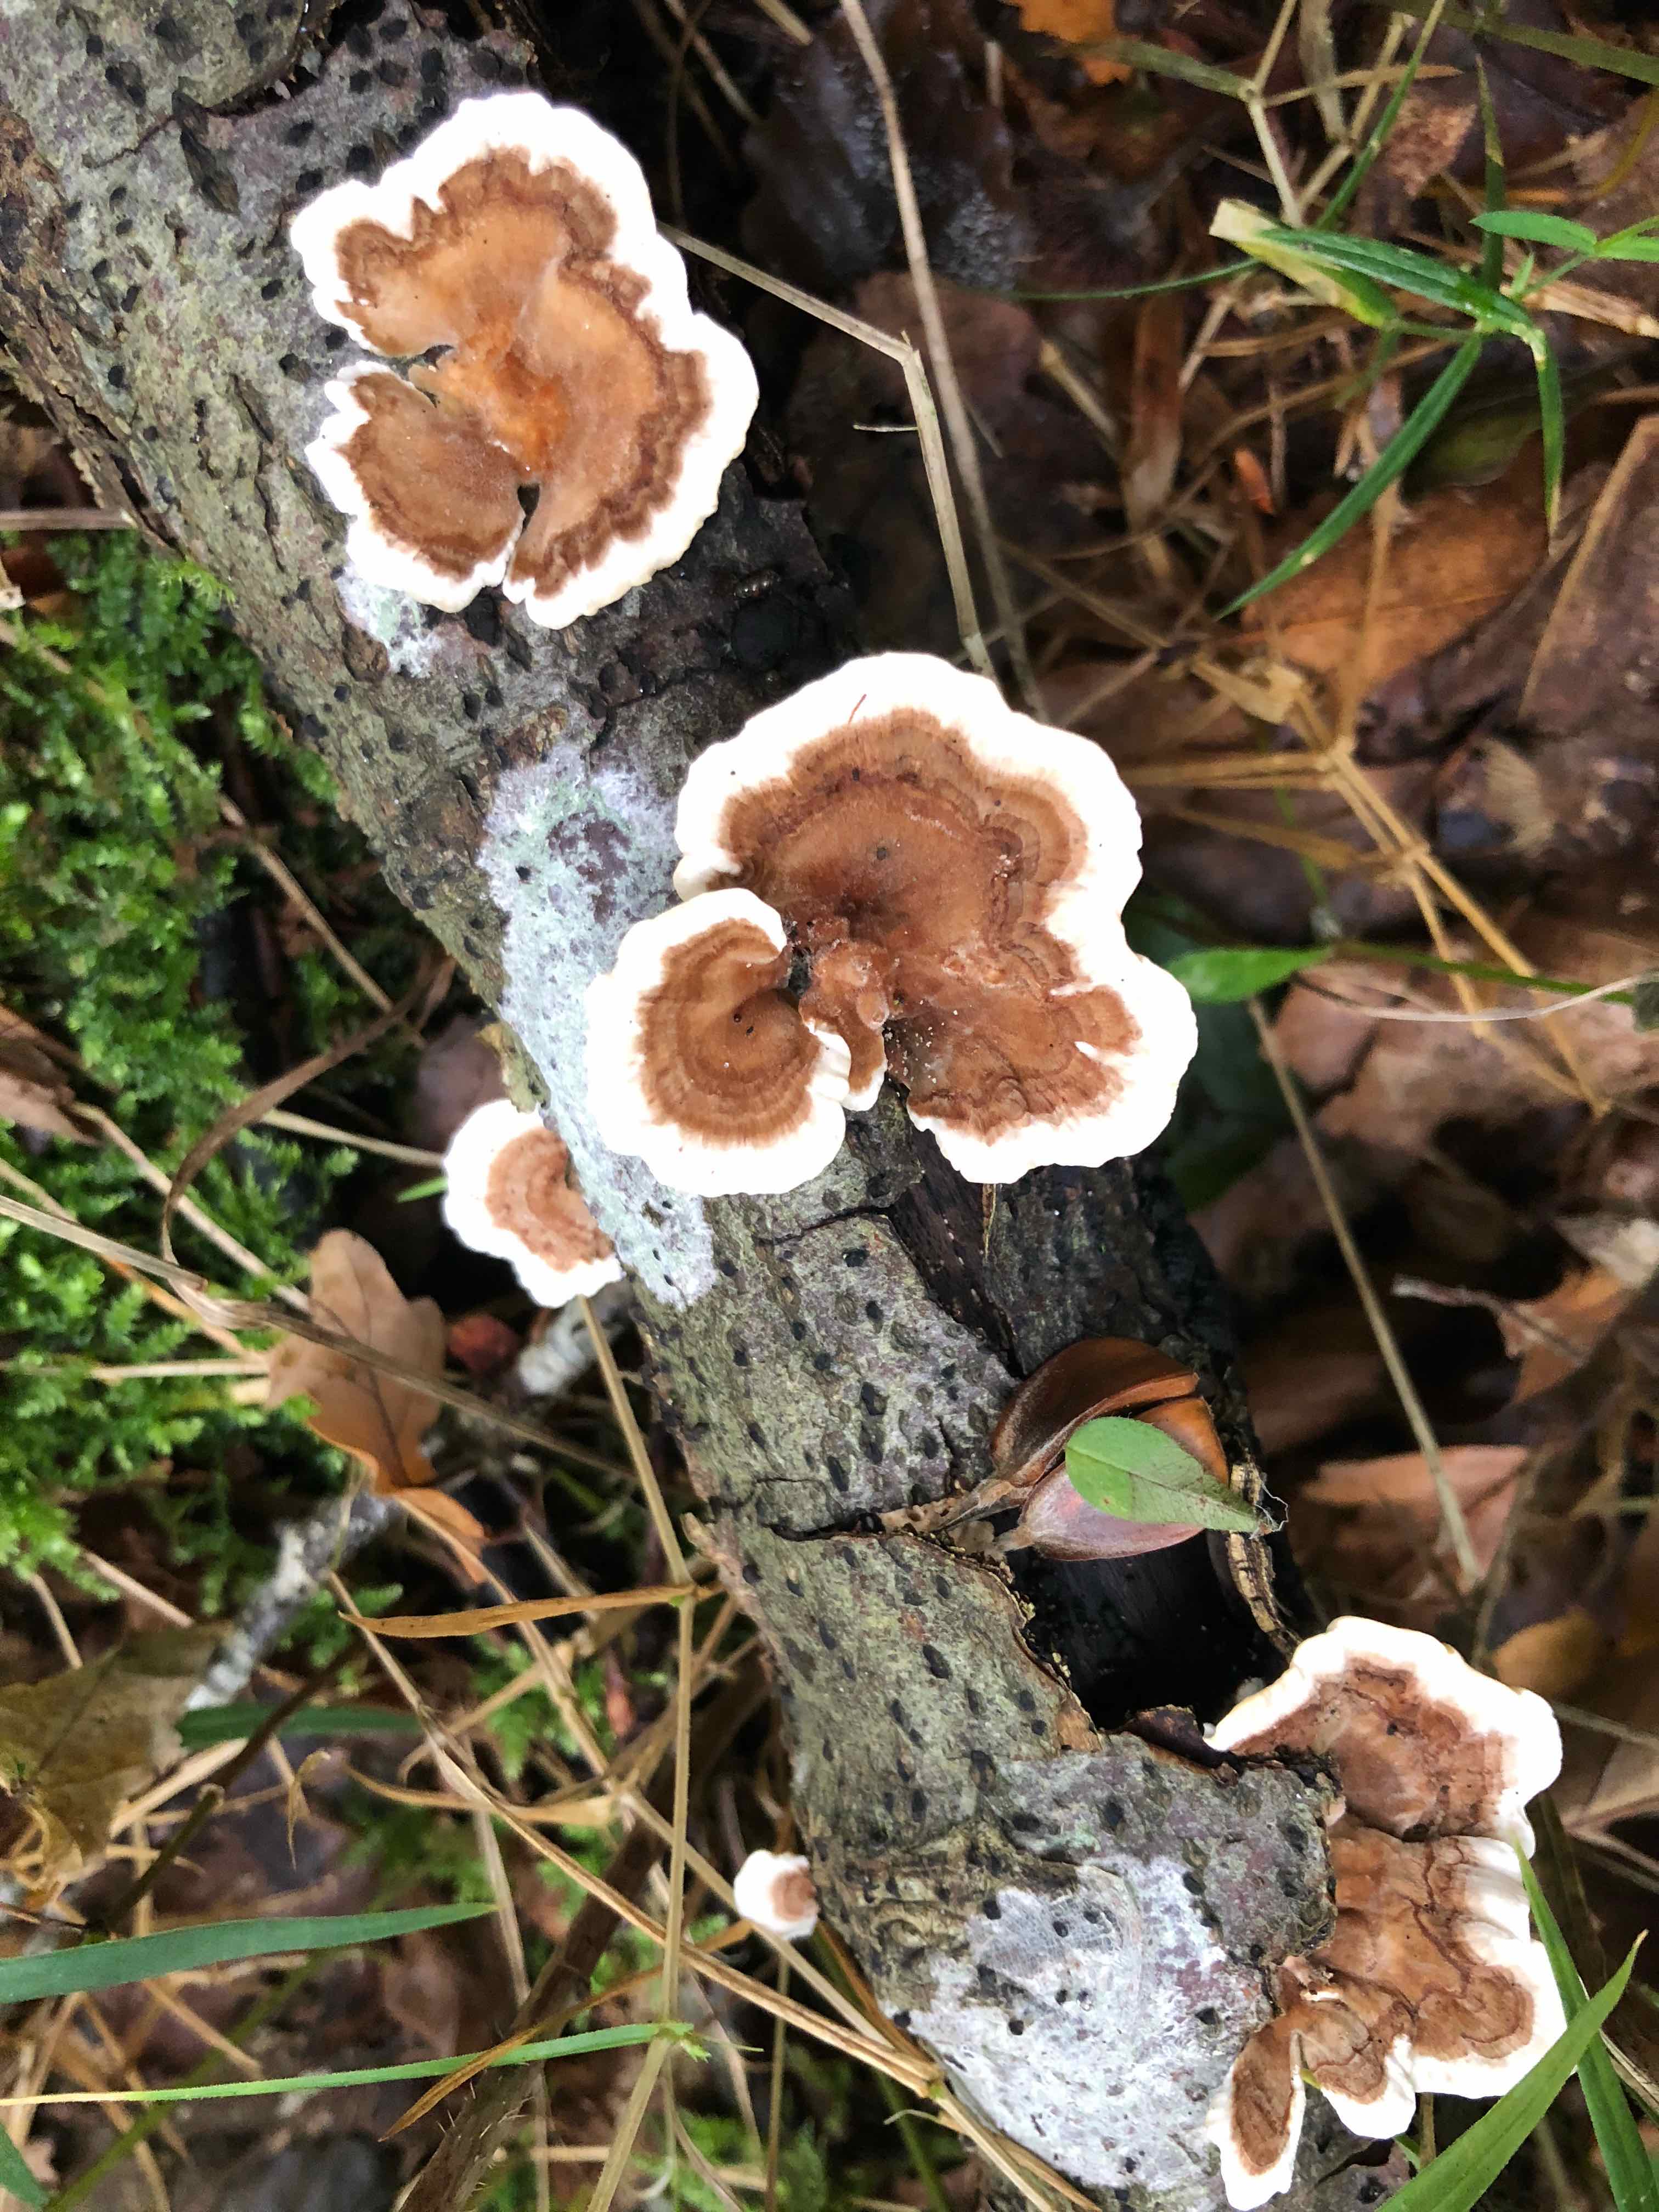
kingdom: Fungi
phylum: Basidiomycota
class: Agaricomycetes
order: Polyporales
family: Polyporaceae
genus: Trametes
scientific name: Trametes
